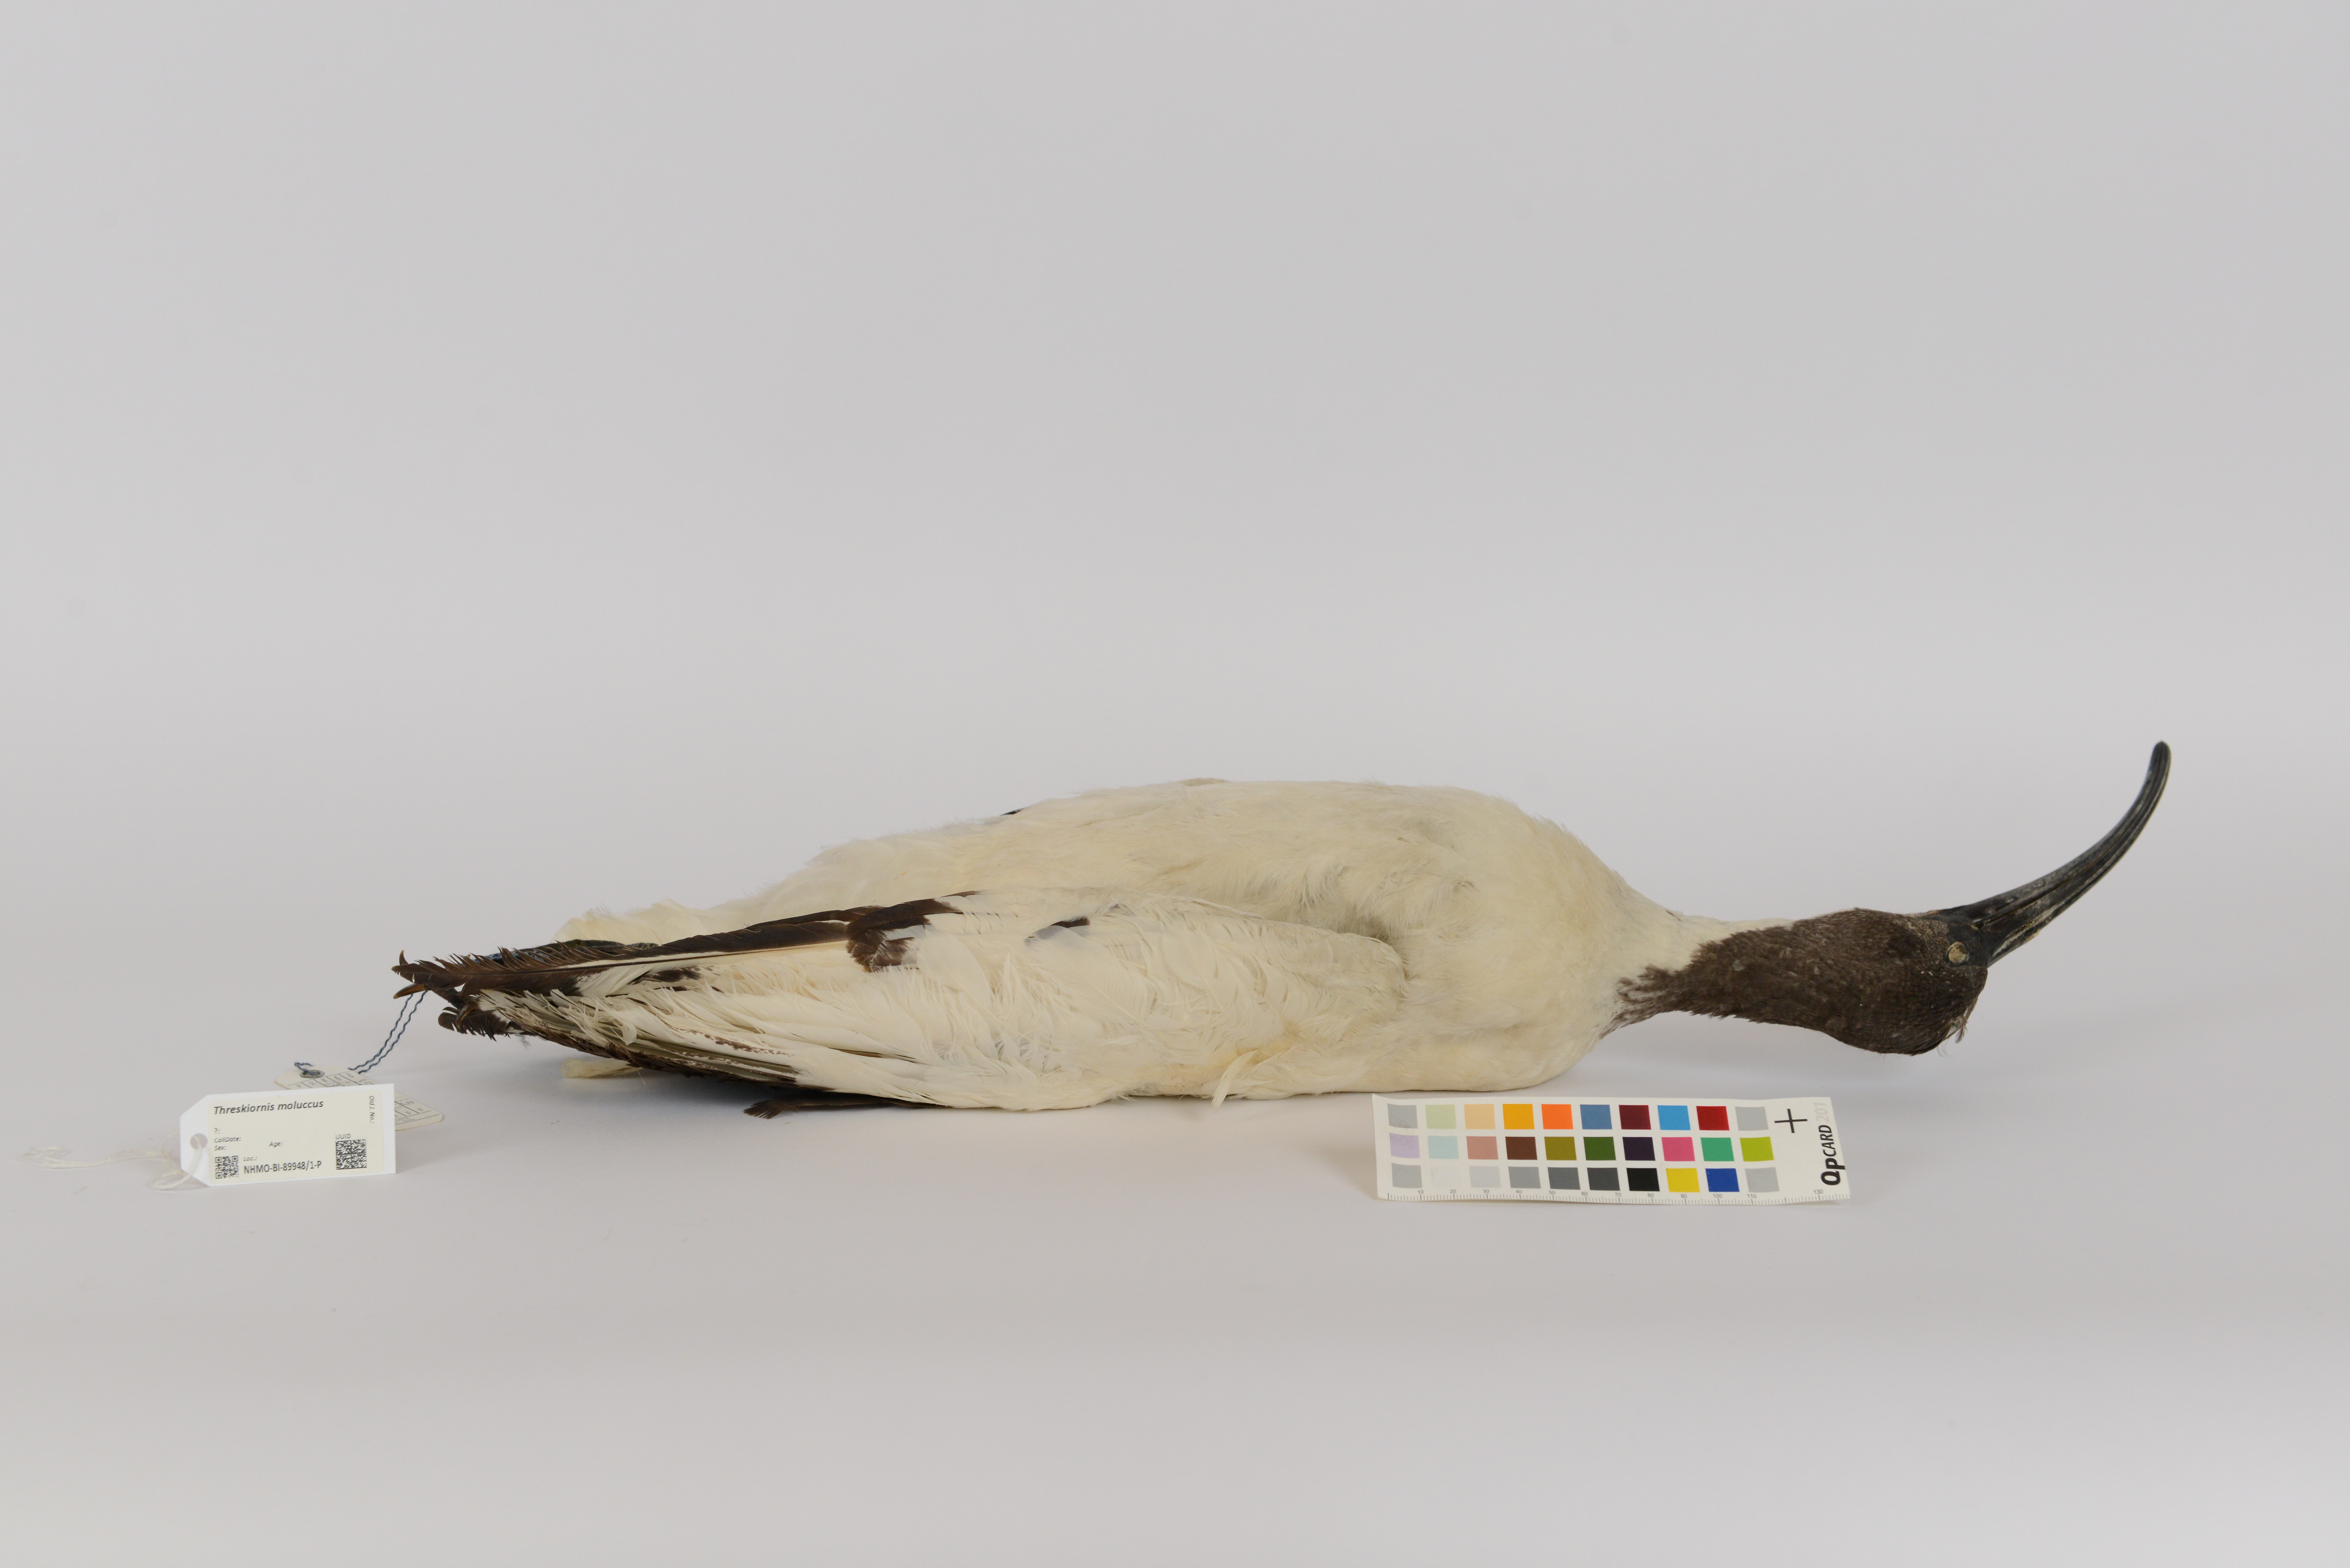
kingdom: Animalia
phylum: Chordata
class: Aves
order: Pelecaniformes
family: Threskiornithidae
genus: Threskiornis
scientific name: Threskiornis molucca
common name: Australian white ibis
